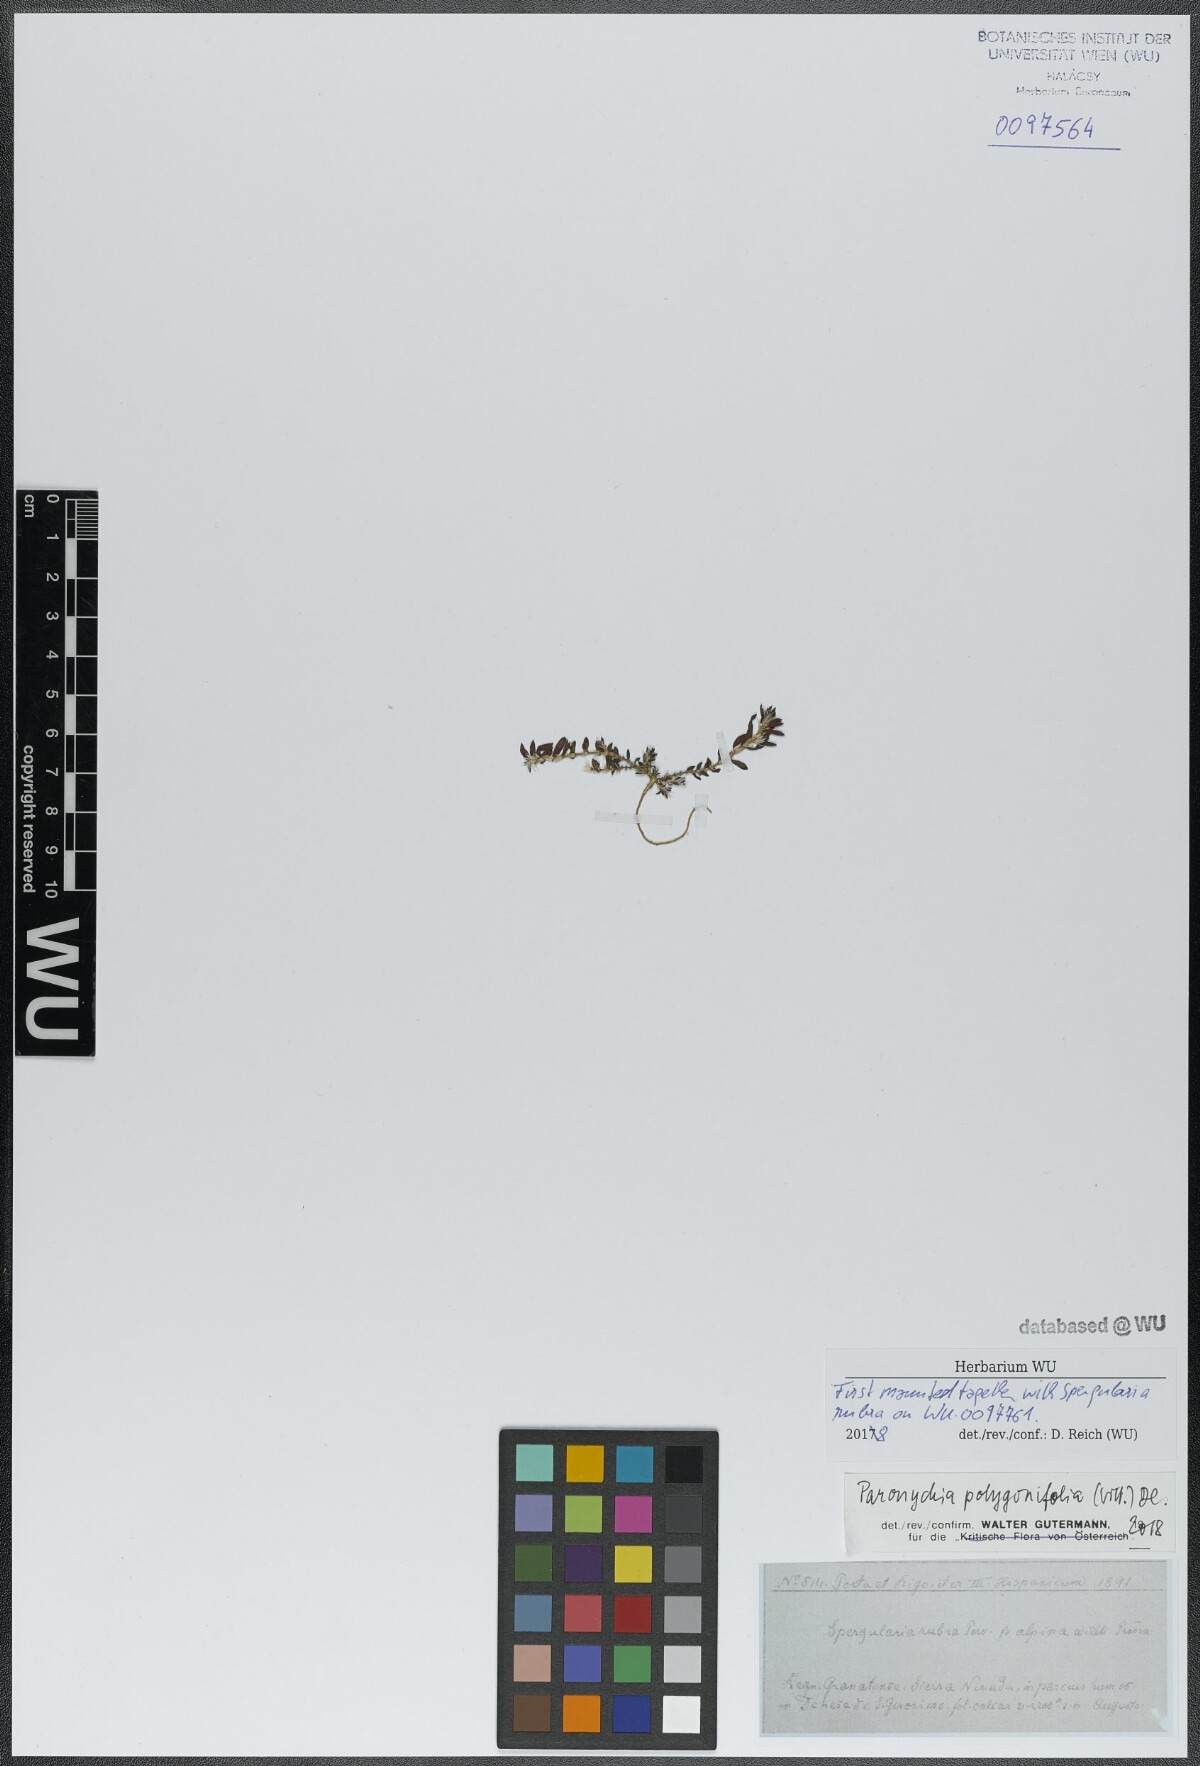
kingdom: Plantae
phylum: Tracheophyta
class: Magnoliopsida
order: Caryophyllales
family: Caryophyllaceae
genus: Paronychia
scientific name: Paronychia polygonifolia
